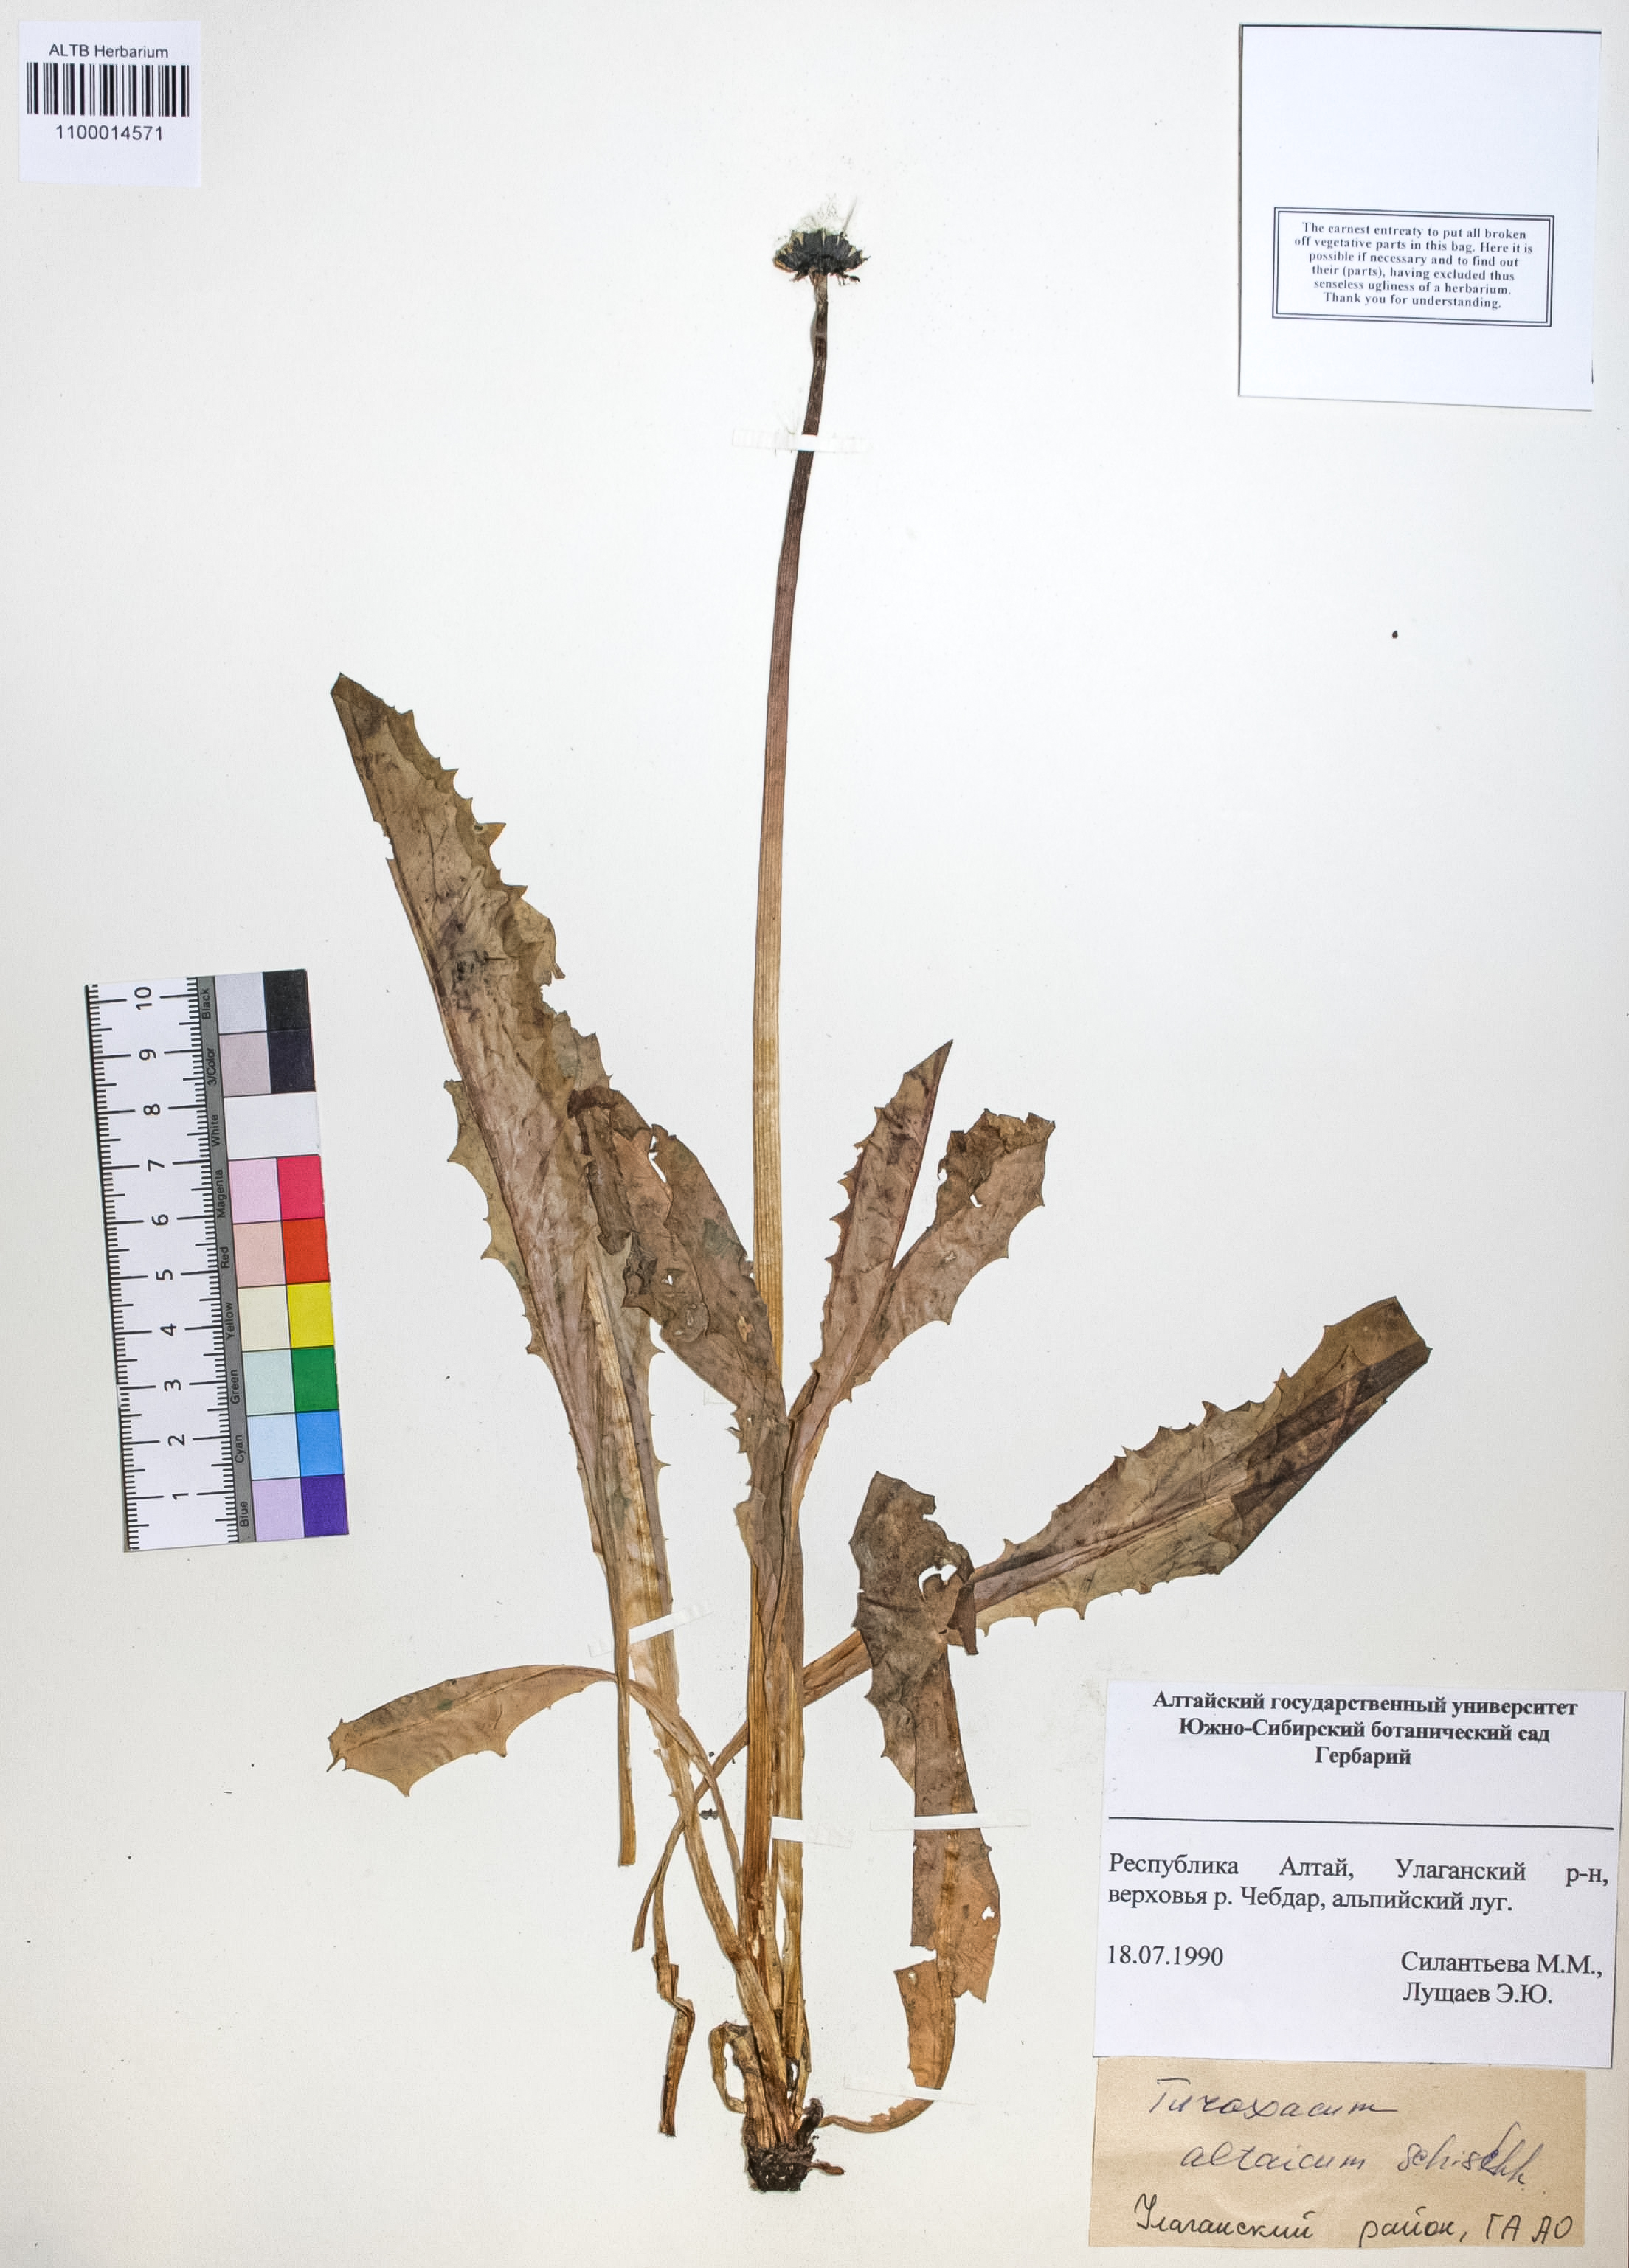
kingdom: Plantae
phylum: Tracheophyta
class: Magnoliopsida
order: Asterales
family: Asteraceae
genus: Taraxacum
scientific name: Taraxacum ceratophorum
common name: Horn-bearing dandelion
